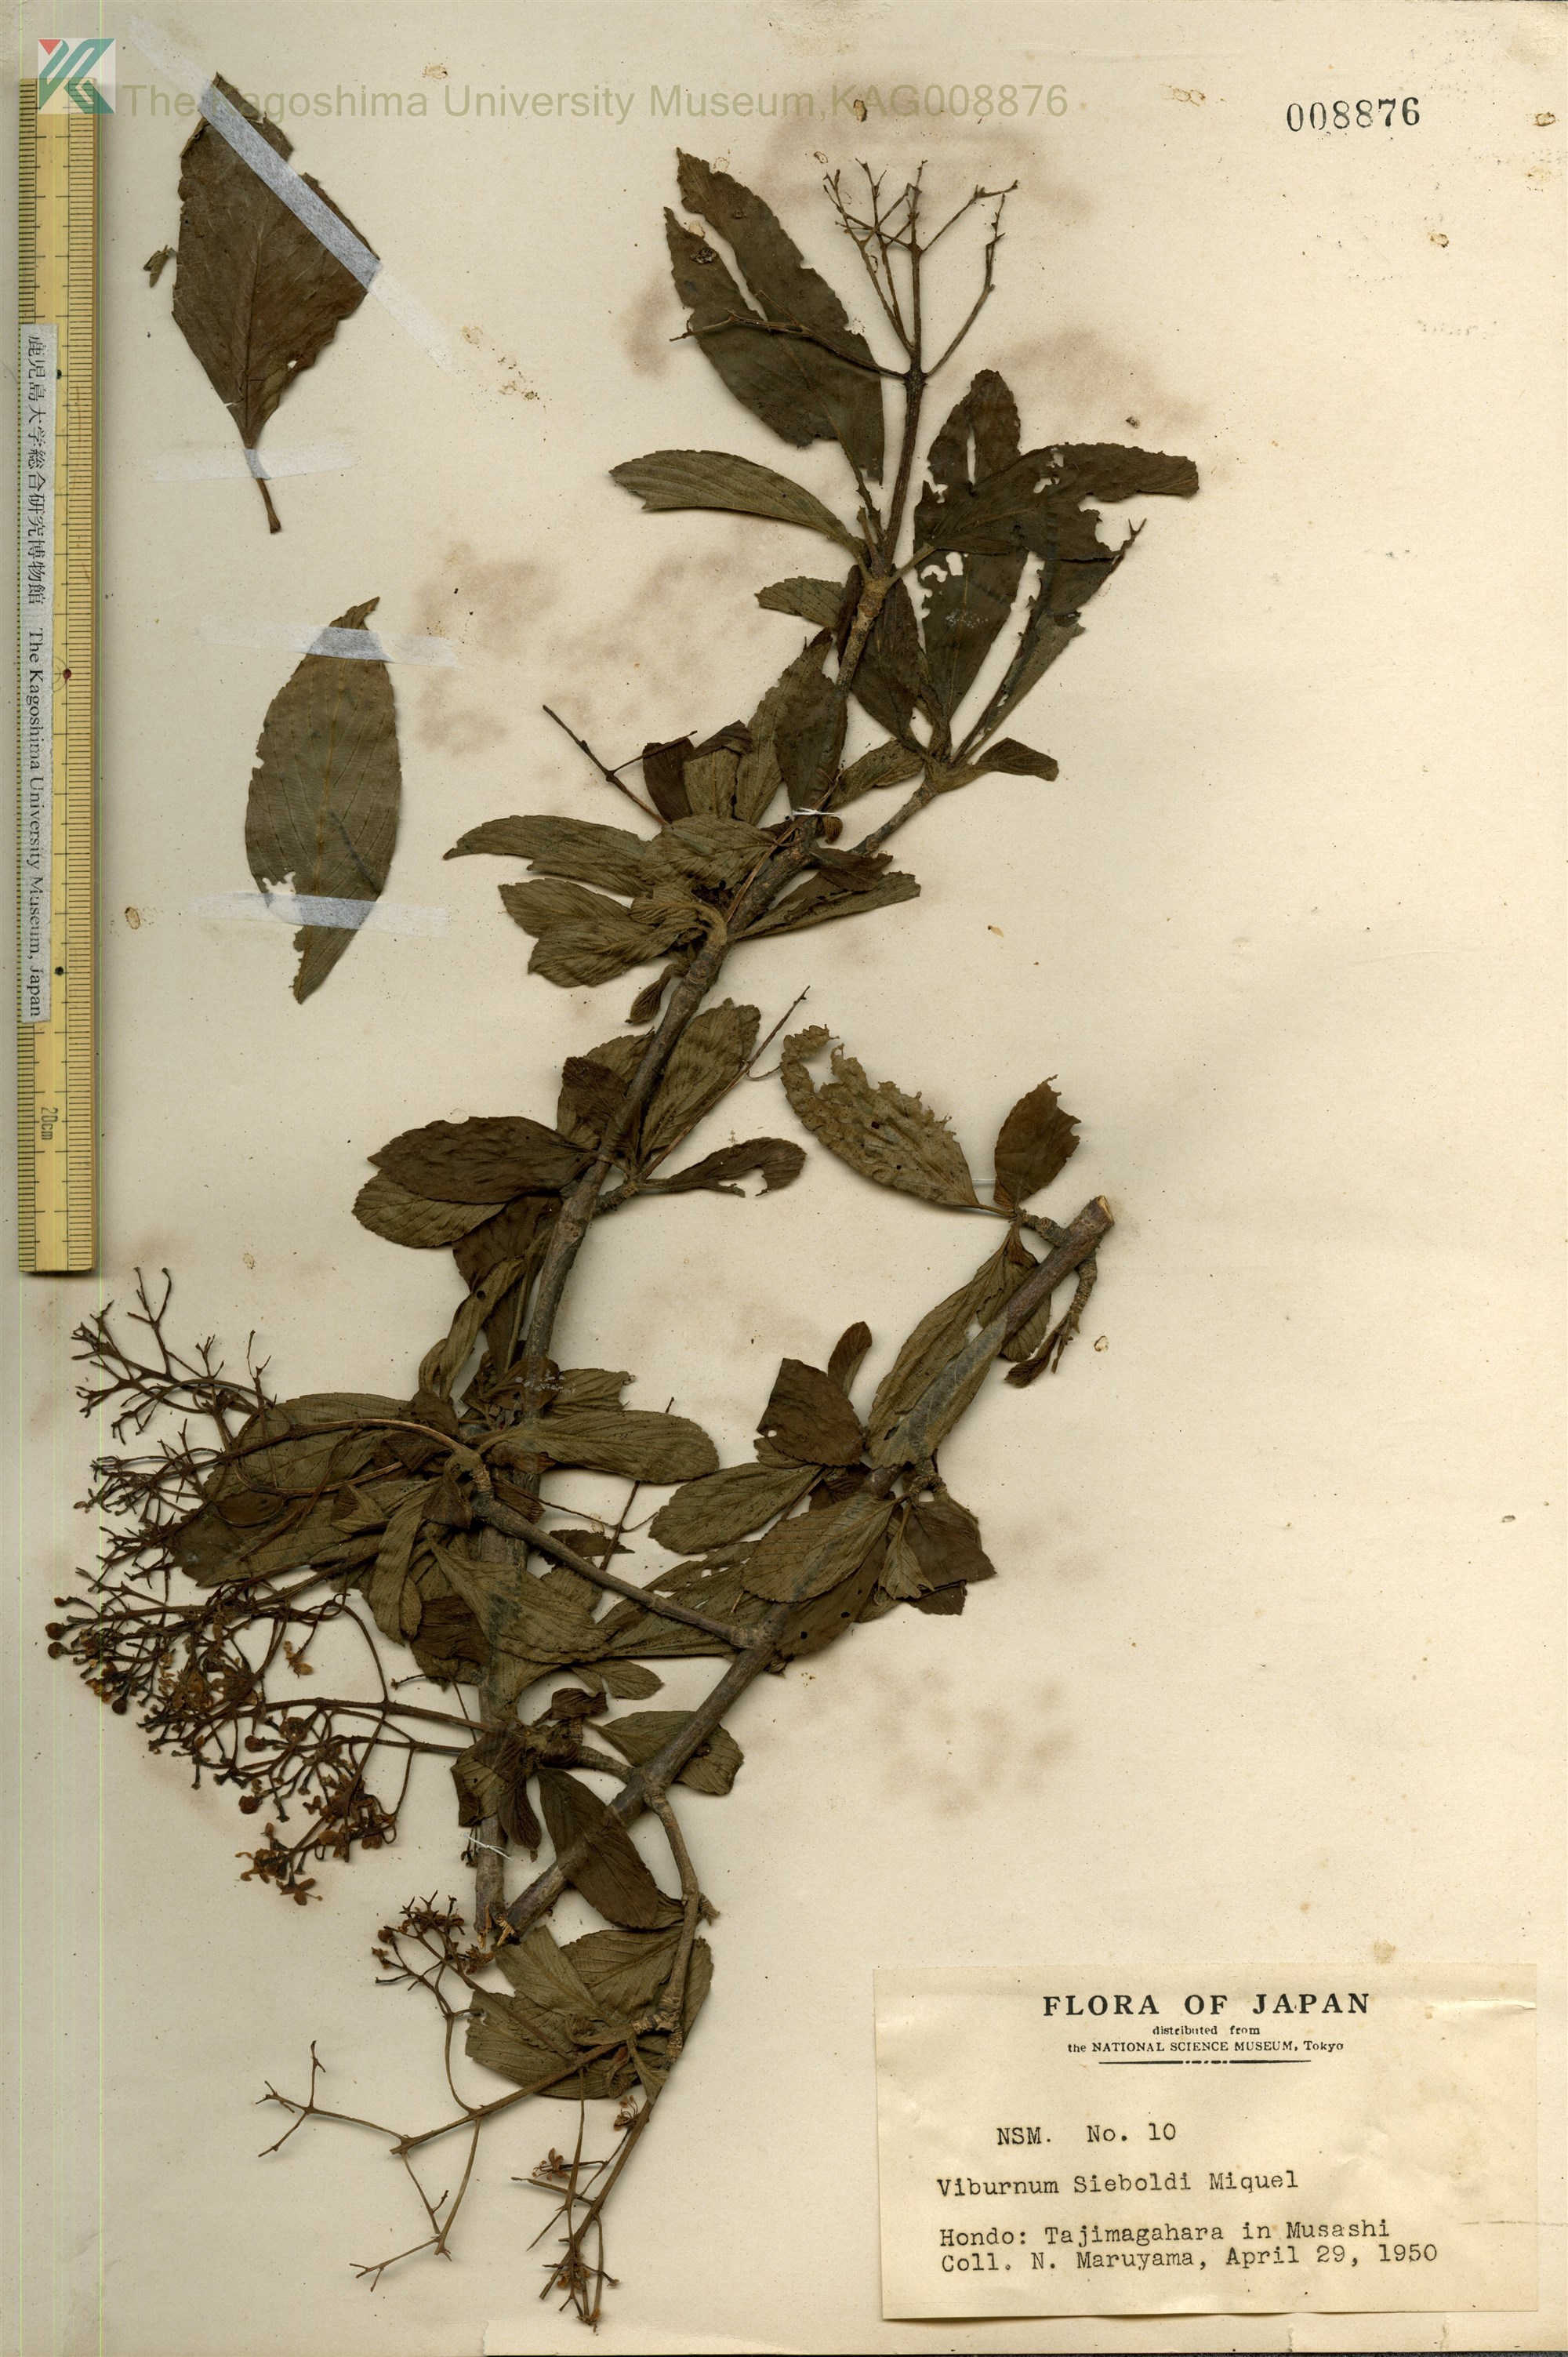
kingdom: Plantae
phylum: Tracheophyta
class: Magnoliopsida
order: Dipsacales
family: Viburnaceae
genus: Viburnum
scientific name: Viburnum sieboldii
